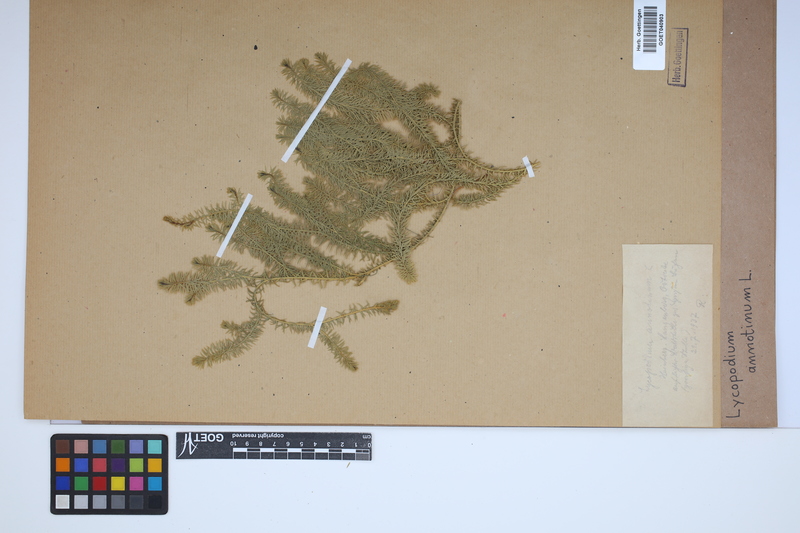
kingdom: Plantae
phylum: Tracheophyta
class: Lycopodiopsida
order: Lycopodiales
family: Lycopodiaceae
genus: Spinulum
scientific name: Spinulum annotinum
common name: Interrupted club-moss
